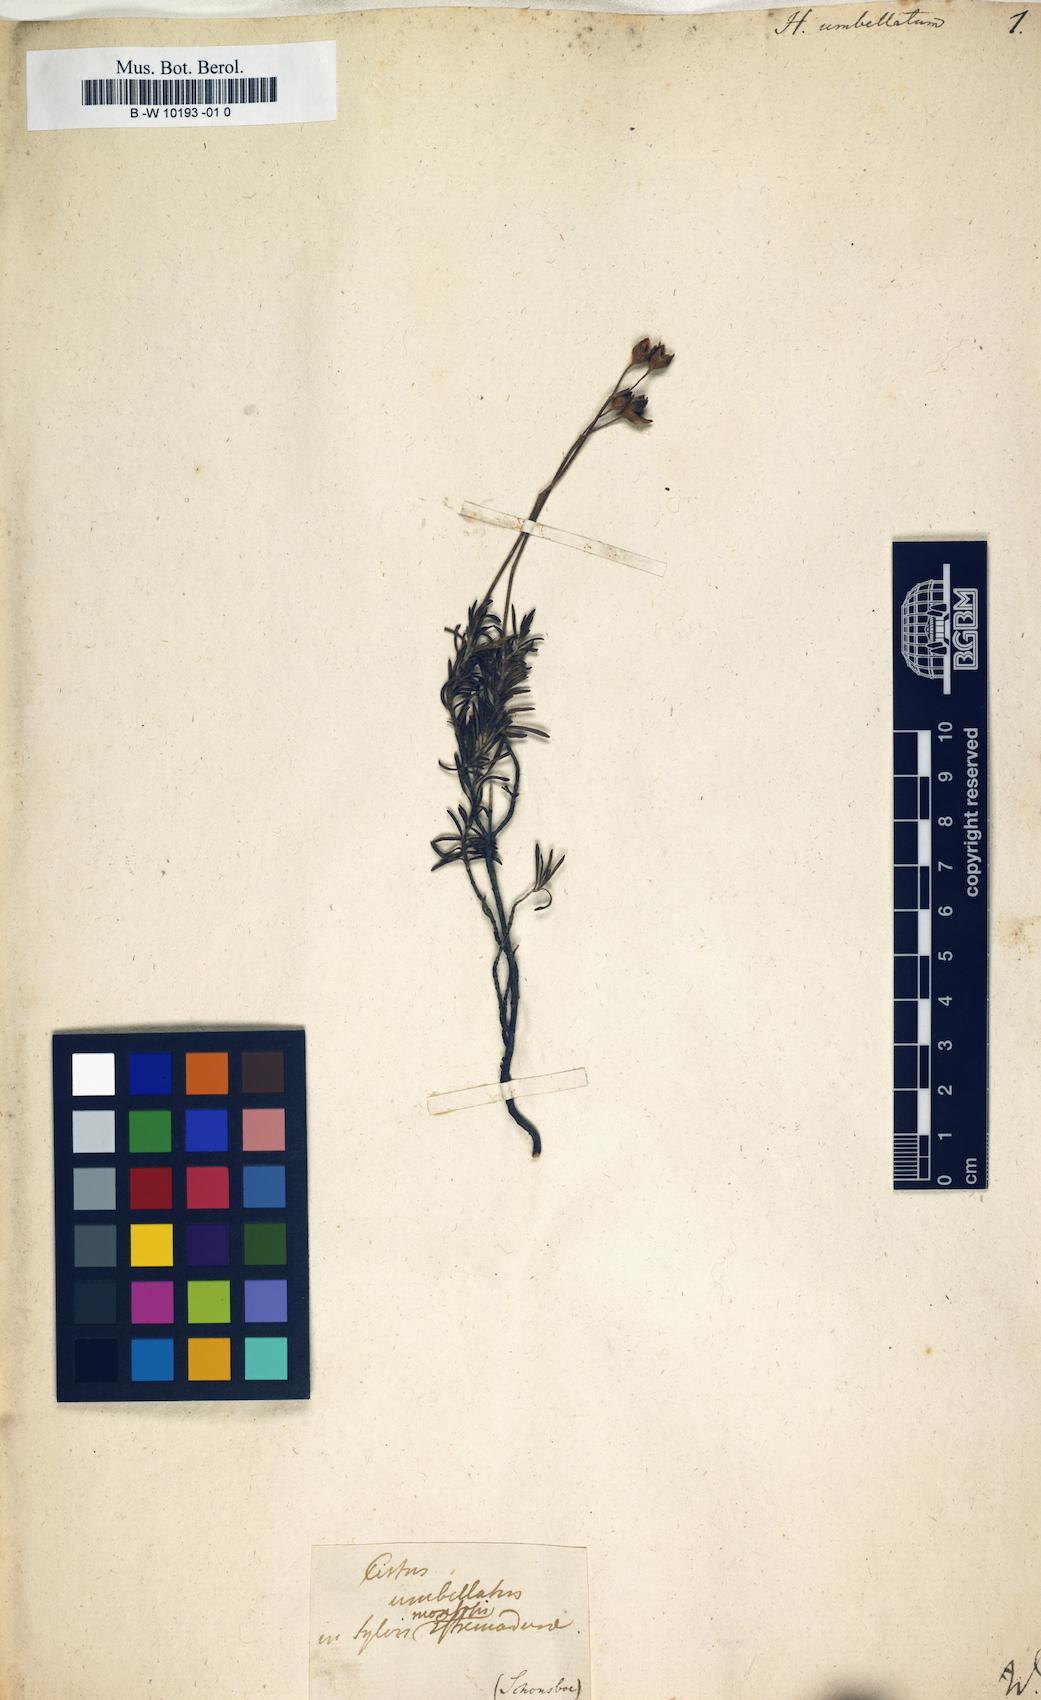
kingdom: Plantae
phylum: Tracheophyta
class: Magnoliopsida
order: Malvales
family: Cistaceae
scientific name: Cistaceae
